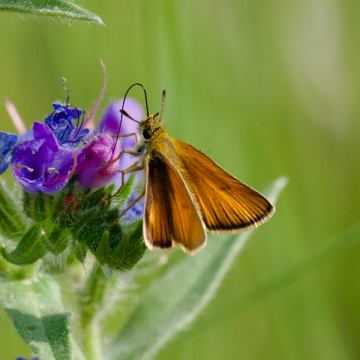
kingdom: Animalia
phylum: Arthropoda
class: Insecta
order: Lepidoptera
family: Hesperiidae
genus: Thymelicus
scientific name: Thymelicus lineola
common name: European Skipper
